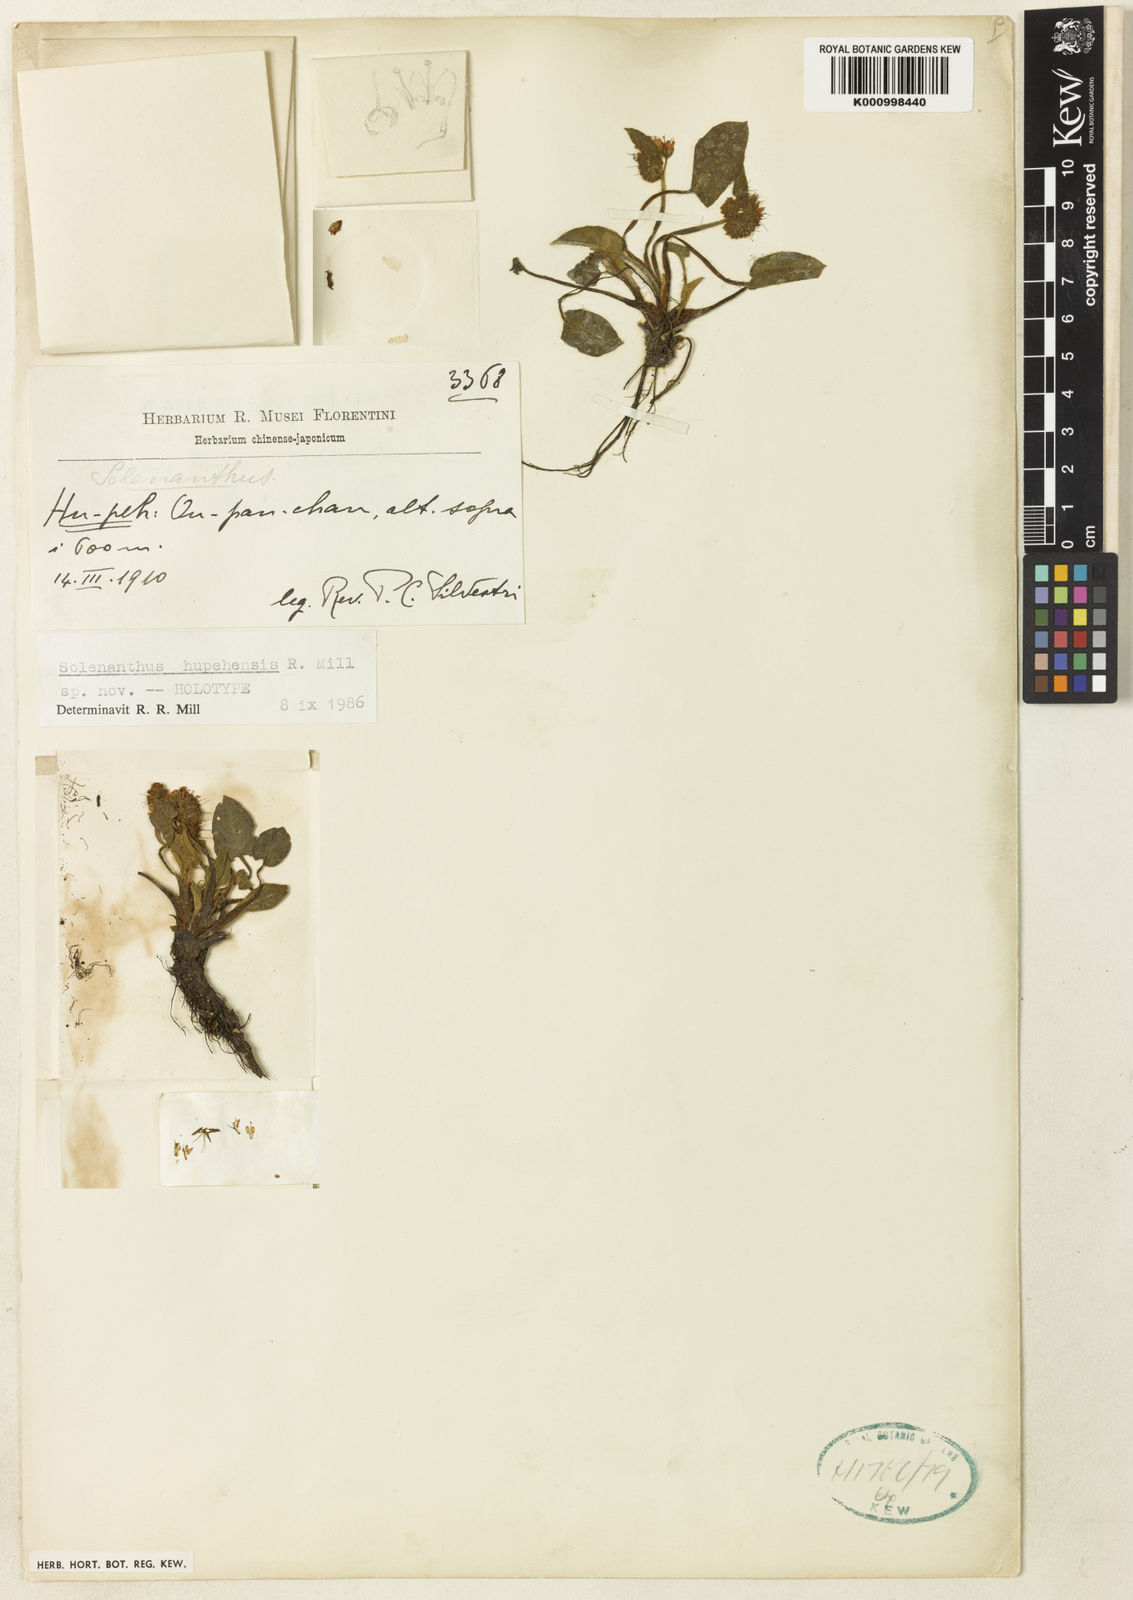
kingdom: Plantae
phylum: Tracheophyta
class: Magnoliopsida
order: Boraginales
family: Boraginaceae
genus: Solenanthus
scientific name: Solenanthus hupehensis
